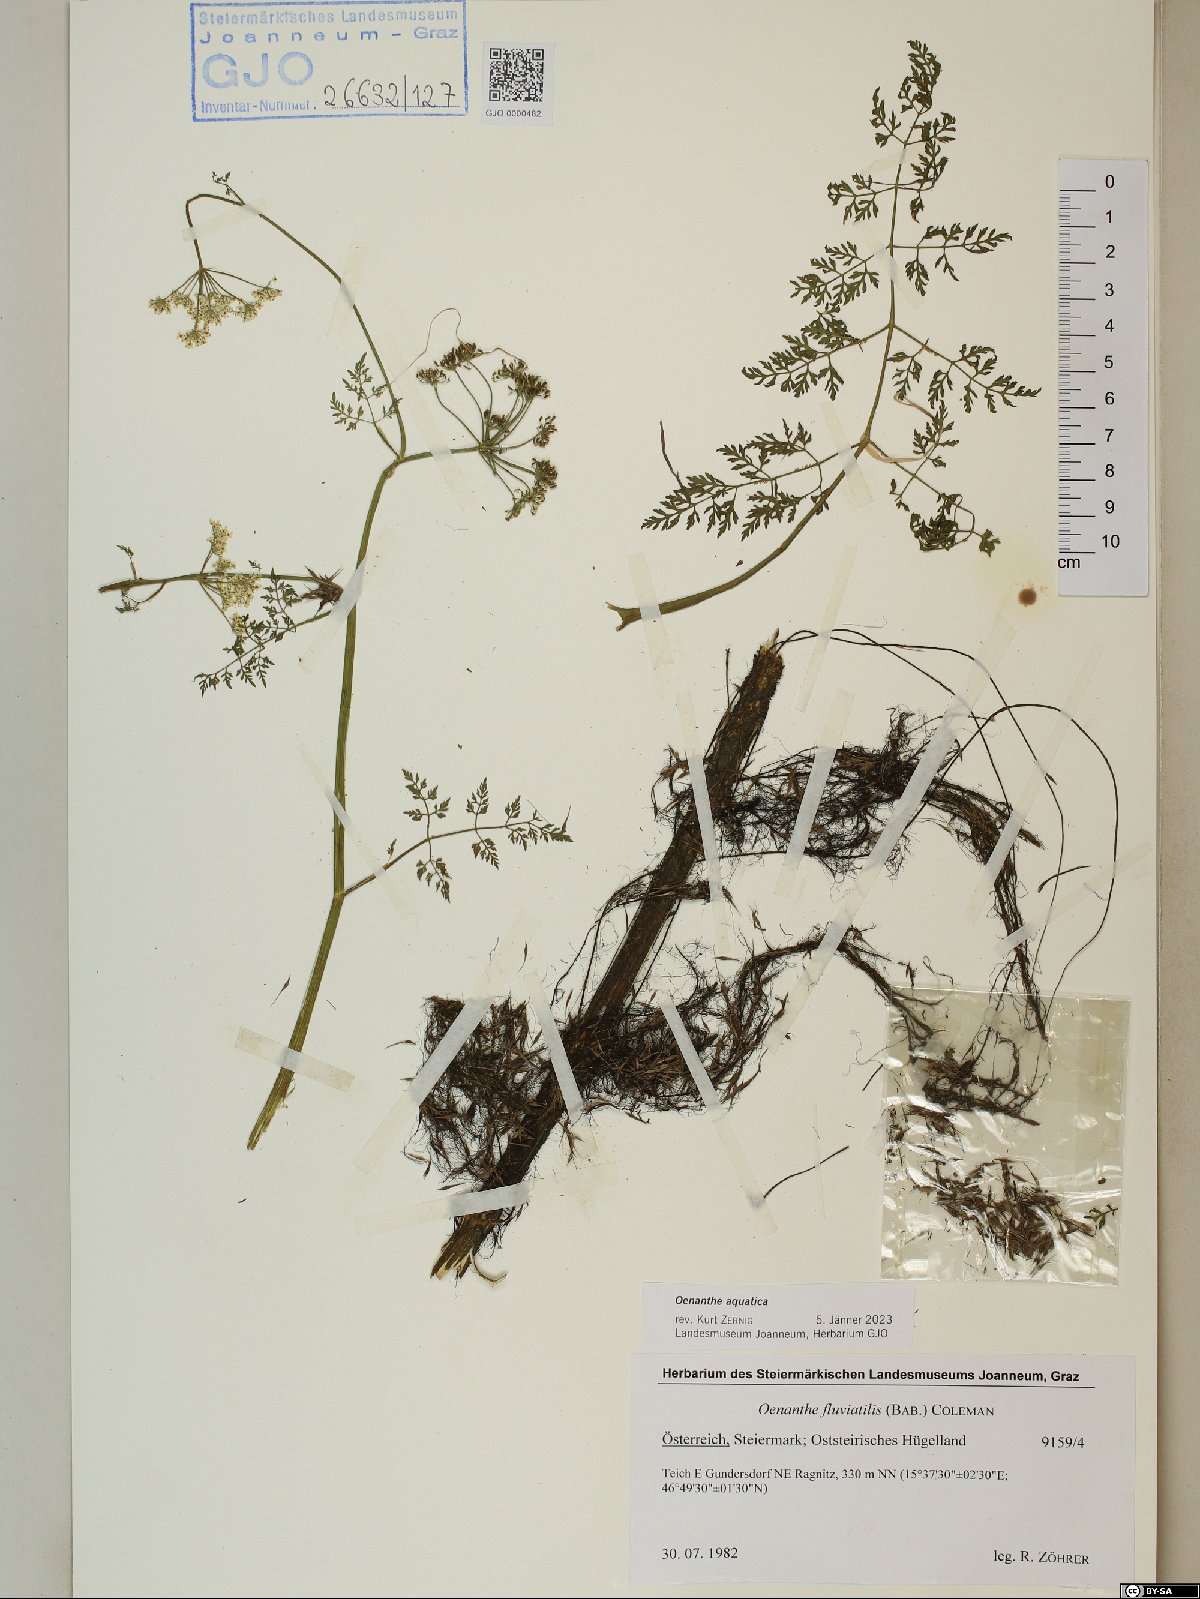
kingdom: Plantae
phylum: Tracheophyta
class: Magnoliopsida
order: Apiales
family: Apiaceae
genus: Oenanthe
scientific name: Oenanthe aquatica
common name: Fine-leaved water-dropwort
